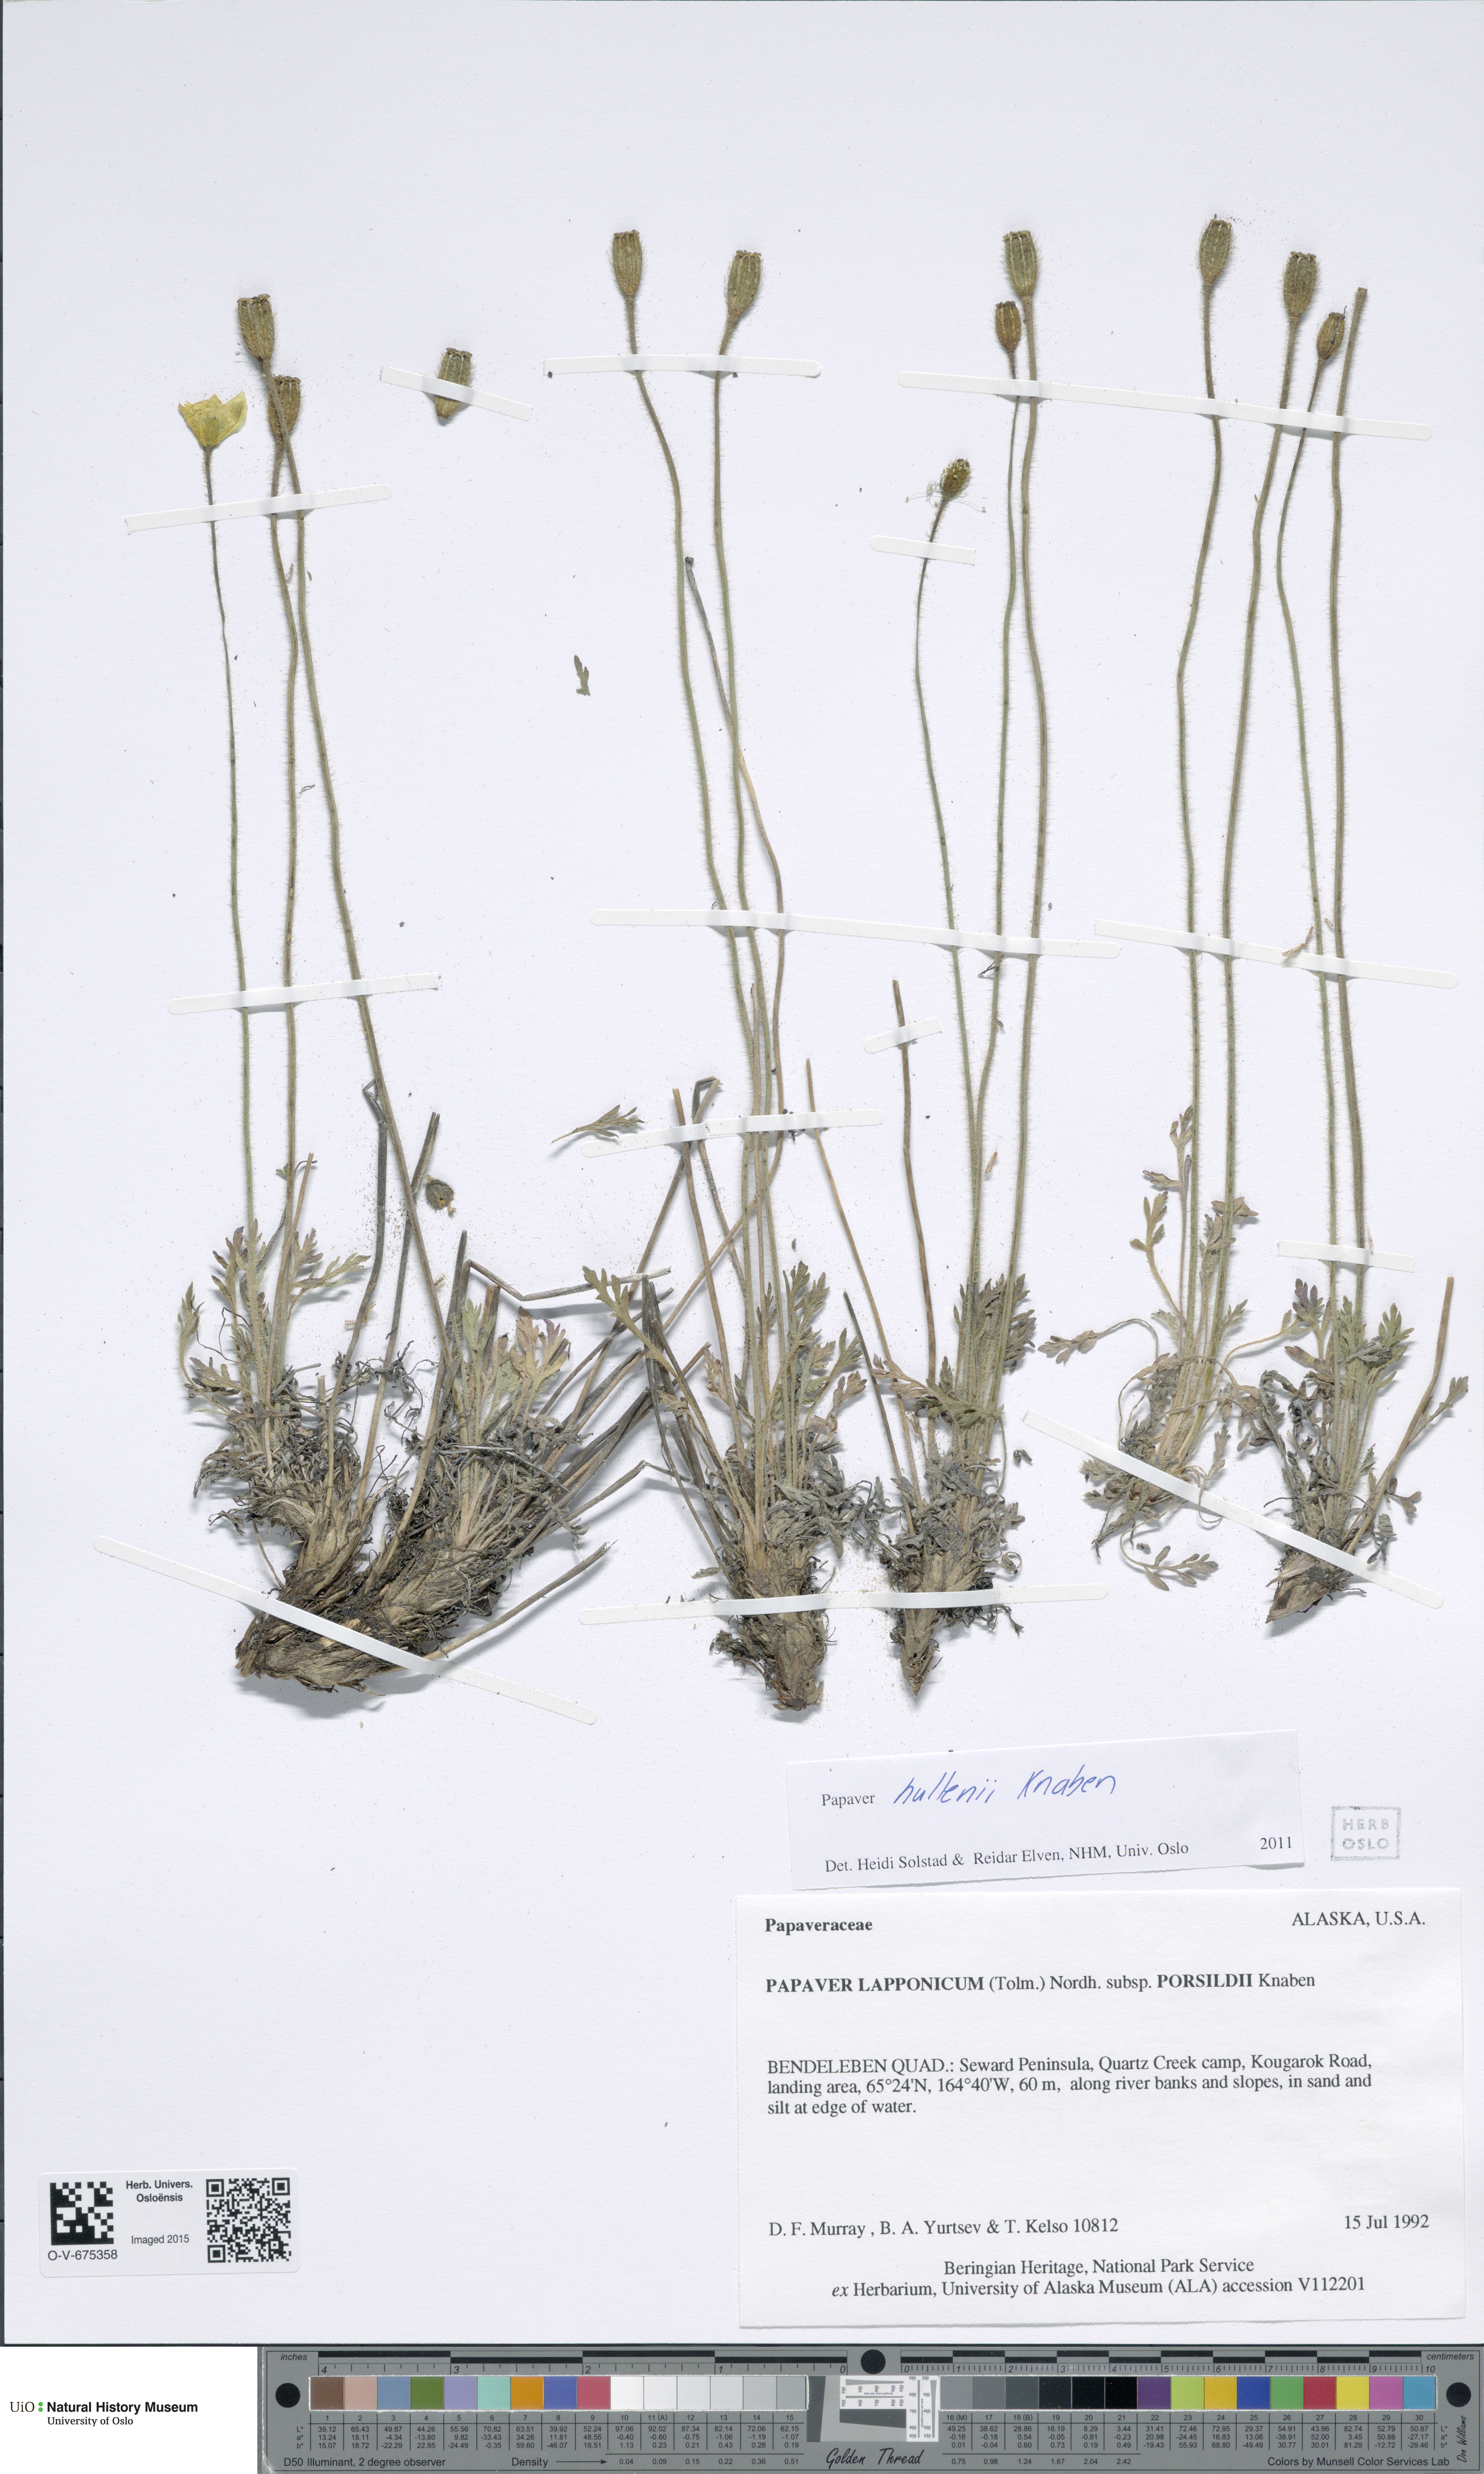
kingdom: Plantae
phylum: Tracheophyta
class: Magnoliopsida
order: Ranunculales
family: Papaveraceae
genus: Papaver
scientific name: Papaver lapponicum
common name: Lapland poppy
